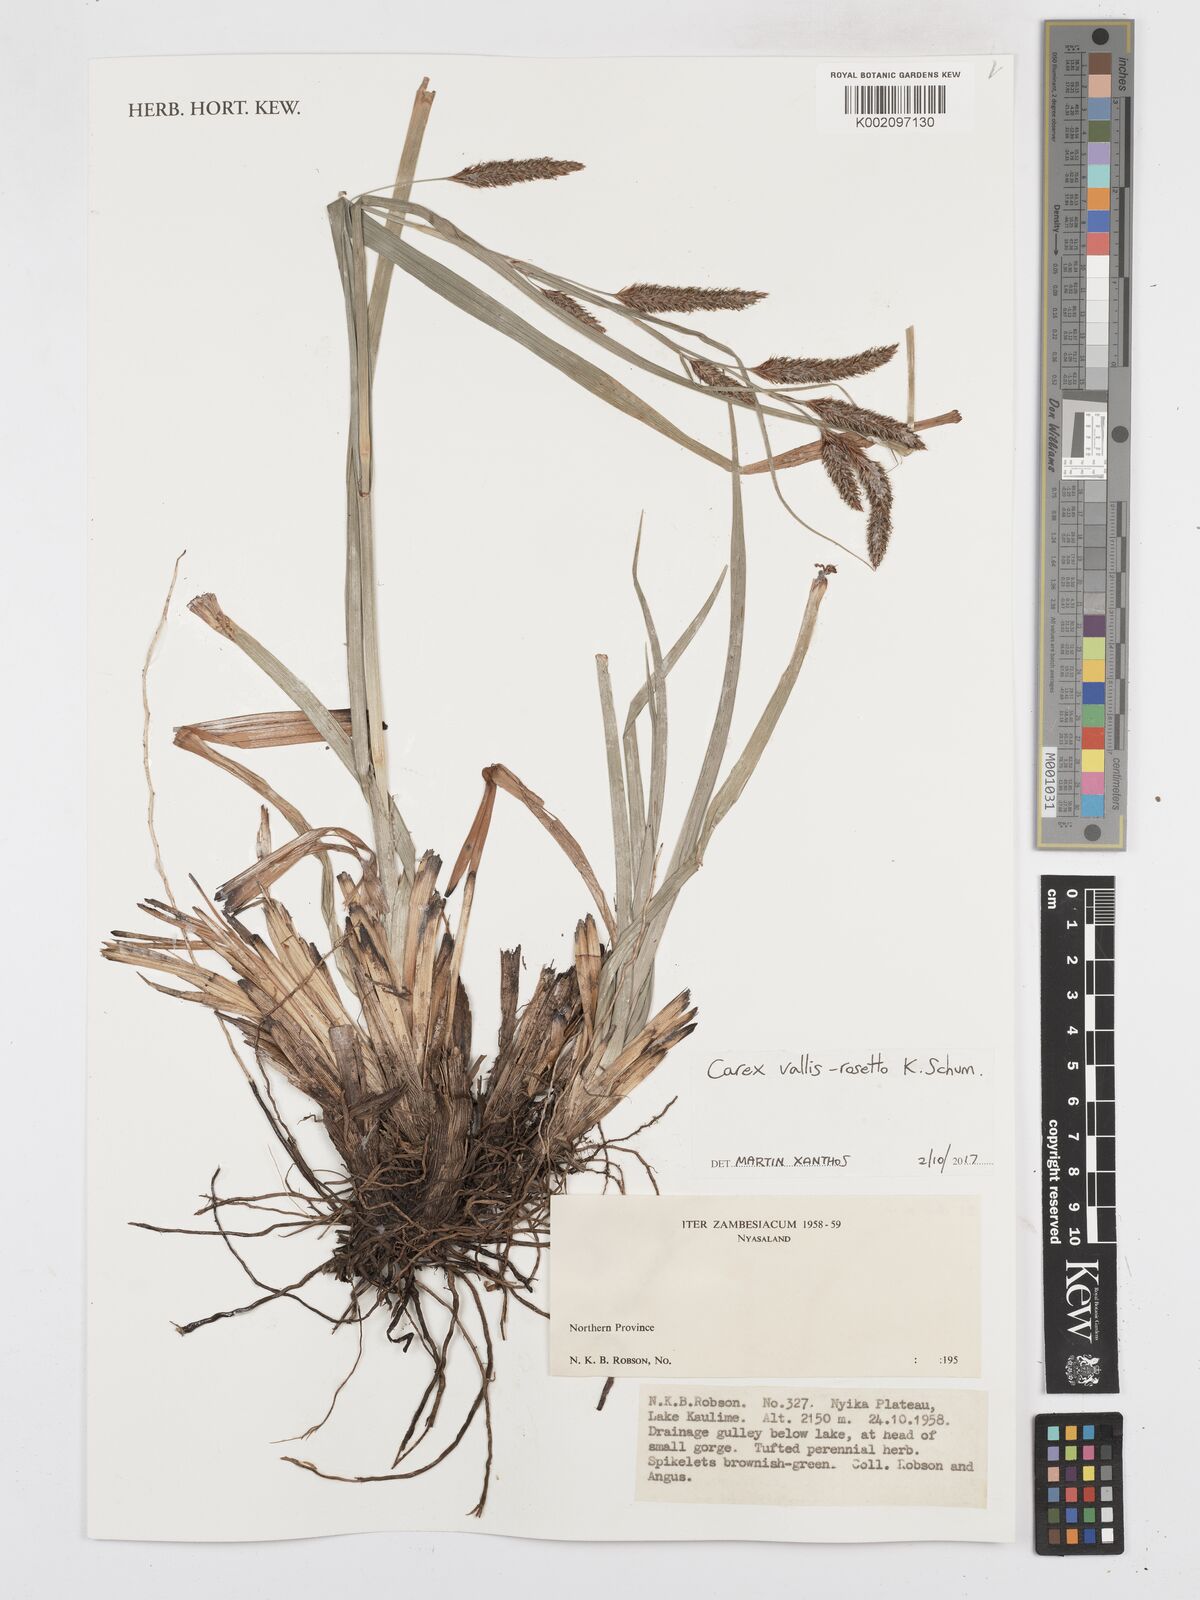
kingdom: Plantae
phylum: Tracheophyta
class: Liliopsida
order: Poales
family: Cyperaceae
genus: Carex
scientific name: Carex vallis-rosetto
